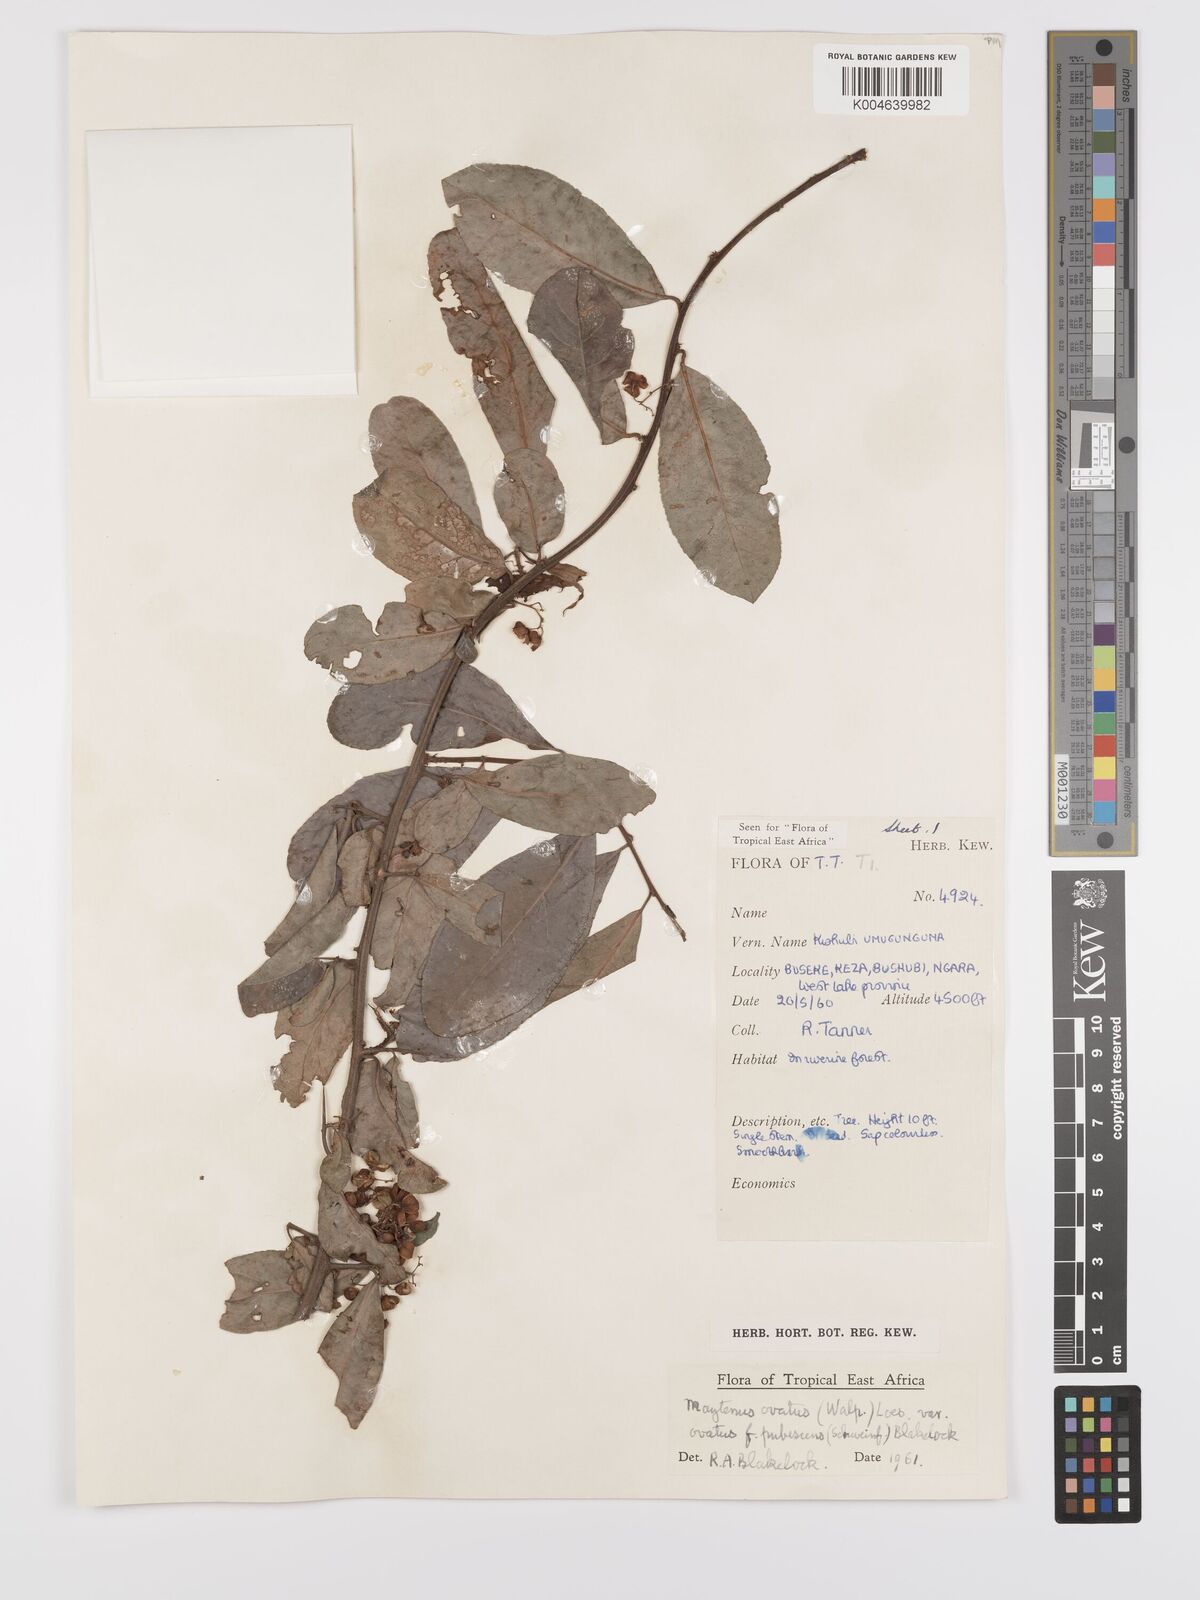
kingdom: Plantae
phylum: Tracheophyta
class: Magnoliopsida
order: Celastrales
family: Celastraceae
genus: Gymnosporia
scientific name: Gymnosporia arbutifolia
